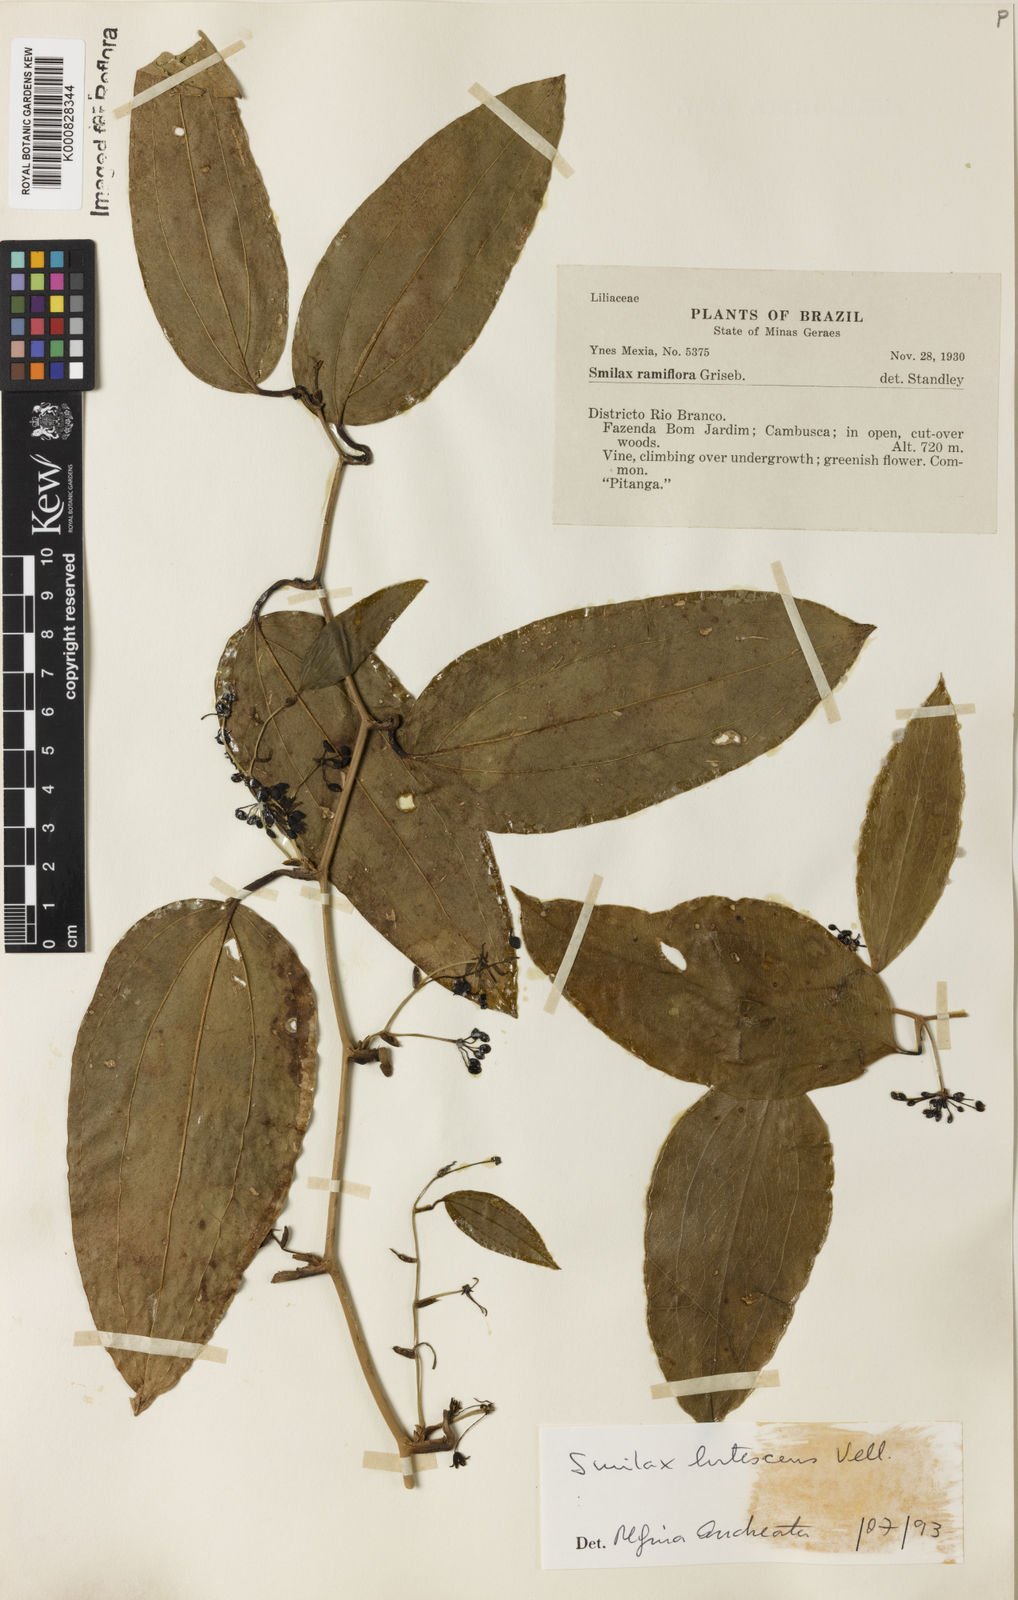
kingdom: Plantae
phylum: Tracheophyta
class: Liliopsida
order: Liliales
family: Smilacaceae
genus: Smilax
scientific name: Smilax lutescens
